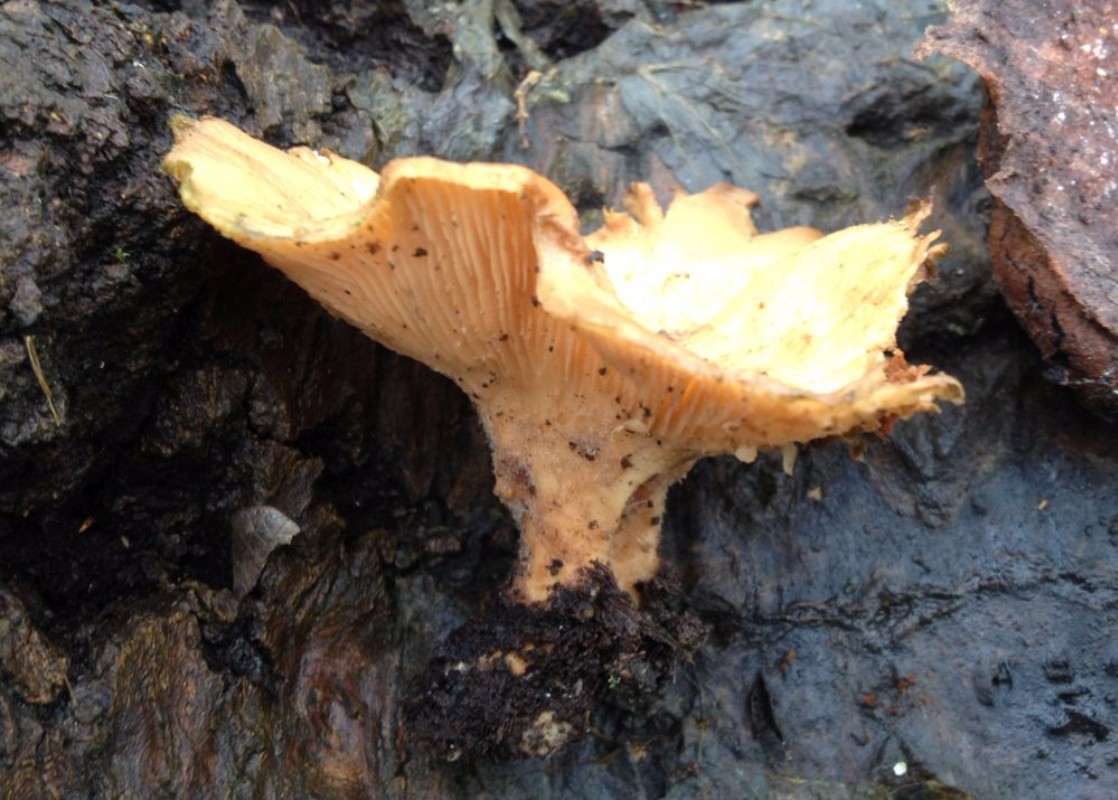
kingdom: Fungi
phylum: Basidiomycota
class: Agaricomycetes
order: Polyporales
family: Panaceae
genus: Panus
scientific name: Panus conchatus
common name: filtstokket læderhat
